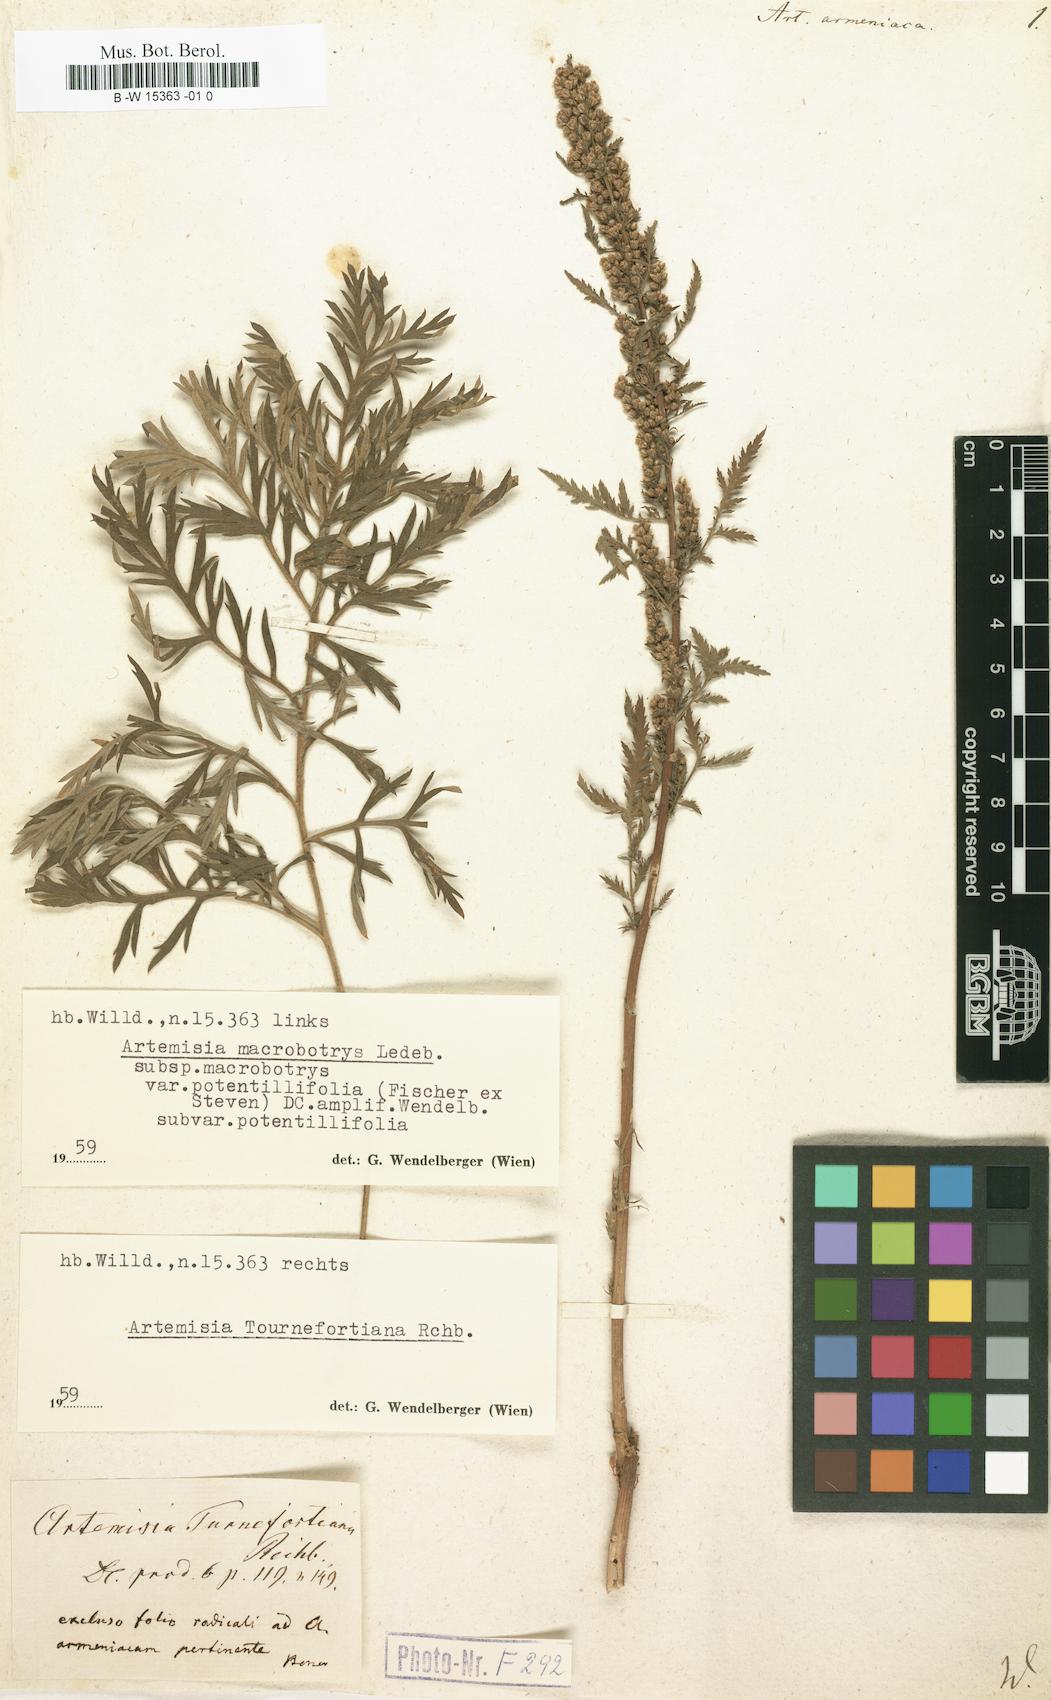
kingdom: Plantae
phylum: Tracheophyta
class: Magnoliopsida
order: Asterales
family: Asteraceae
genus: Artemisia
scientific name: Artemisia armeniaca
